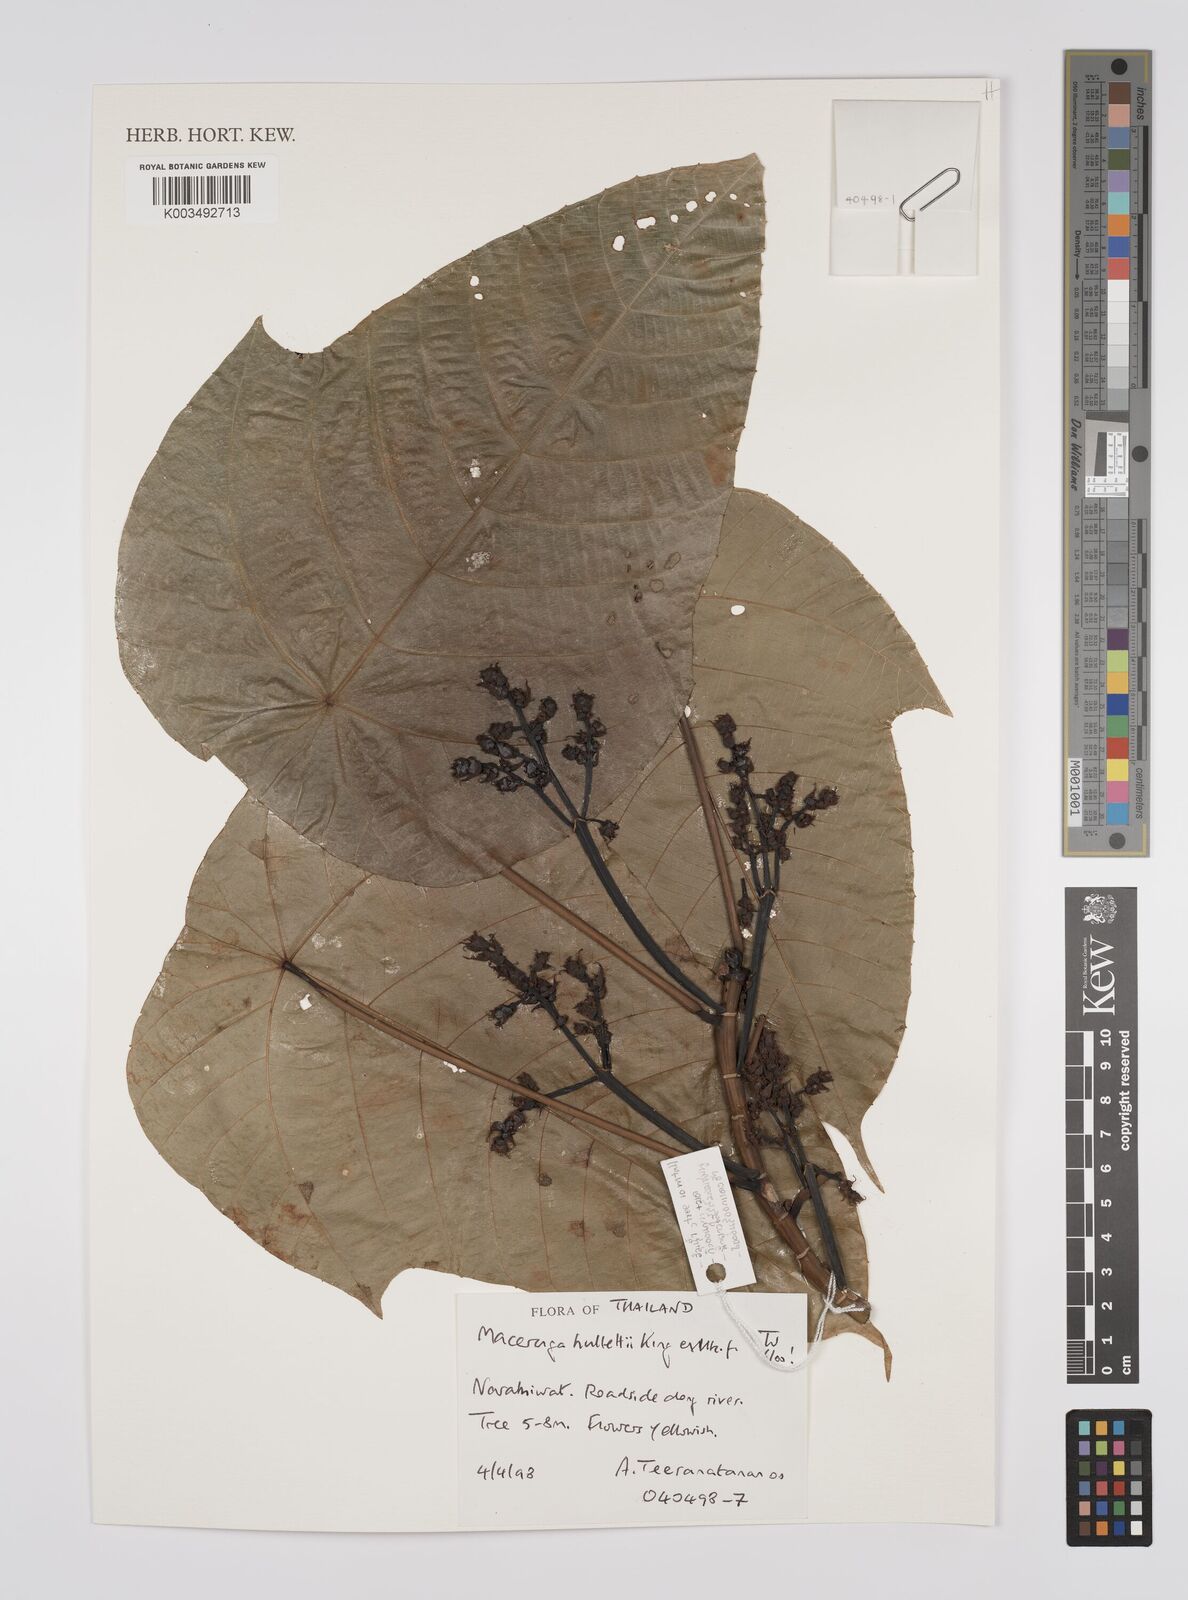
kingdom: Plantae
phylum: Tracheophyta
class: Magnoliopsida
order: Malpighiales
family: Euphorbiaceae
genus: Macaranga
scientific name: Macaranga hullettii
